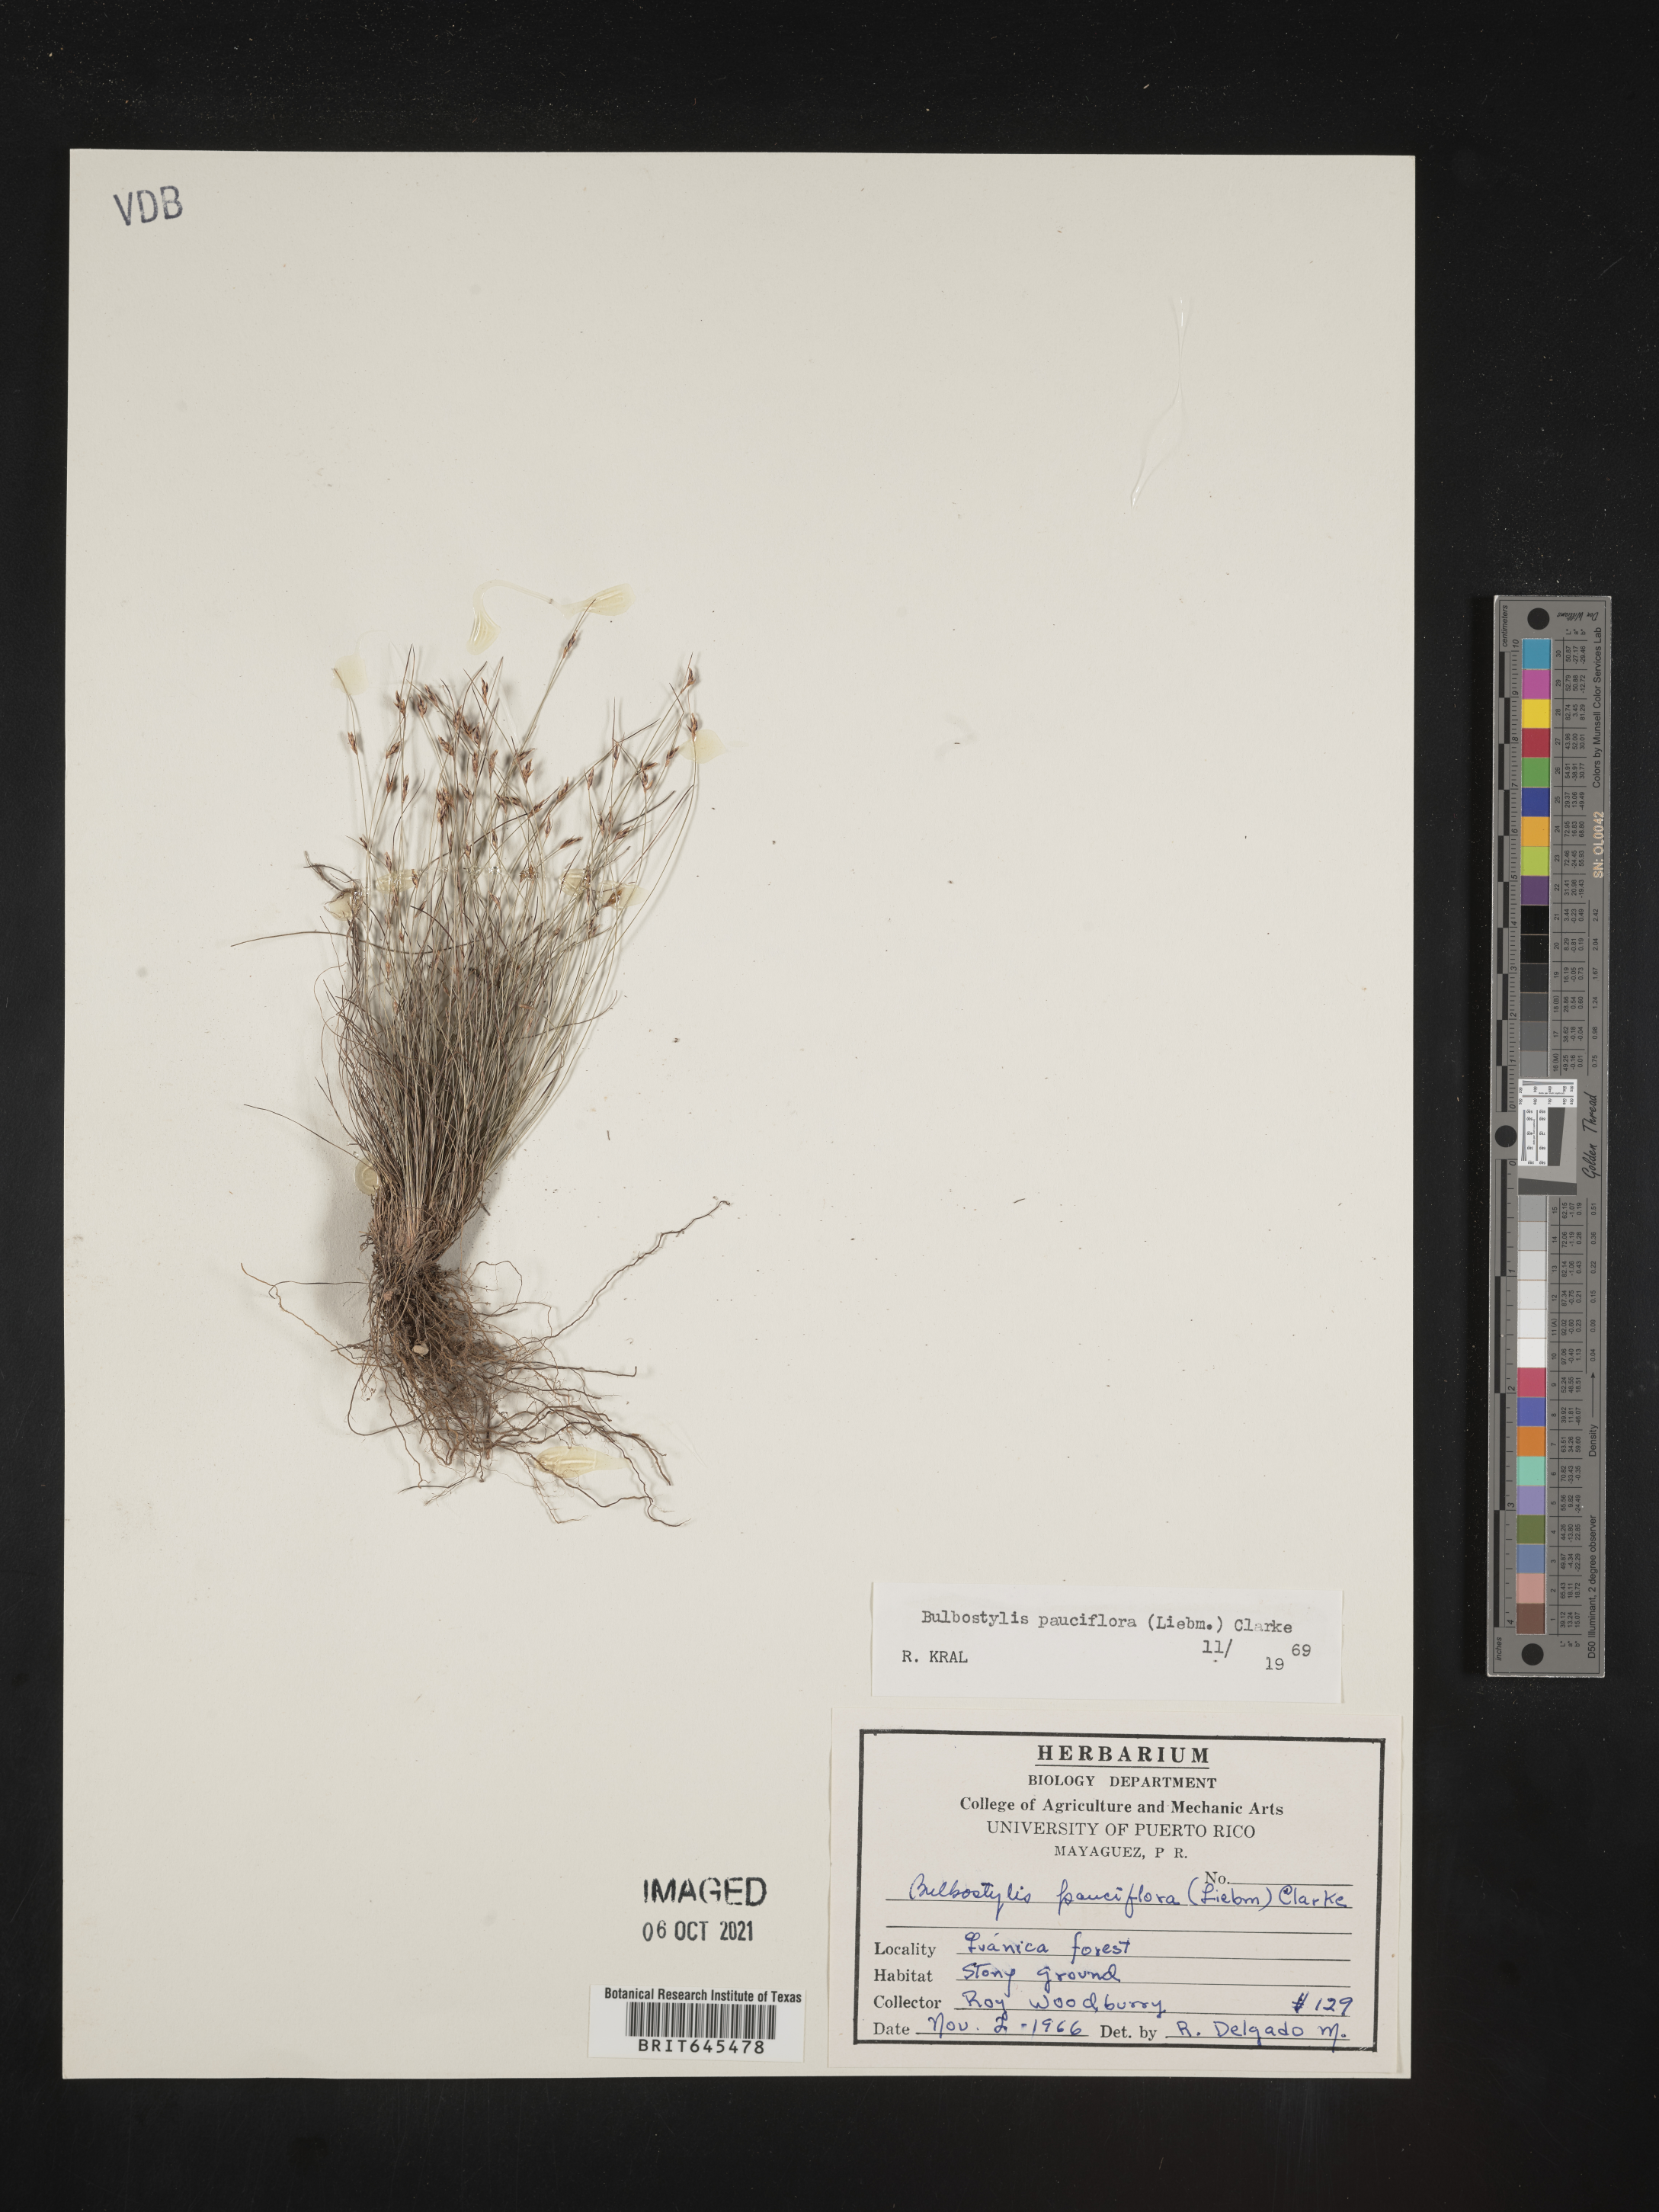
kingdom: Plantae
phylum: Tracheophyta
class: Liliopsida
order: Poales
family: Cyperaceae
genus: Bulbostylis
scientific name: Bulbostylis pauciflora
